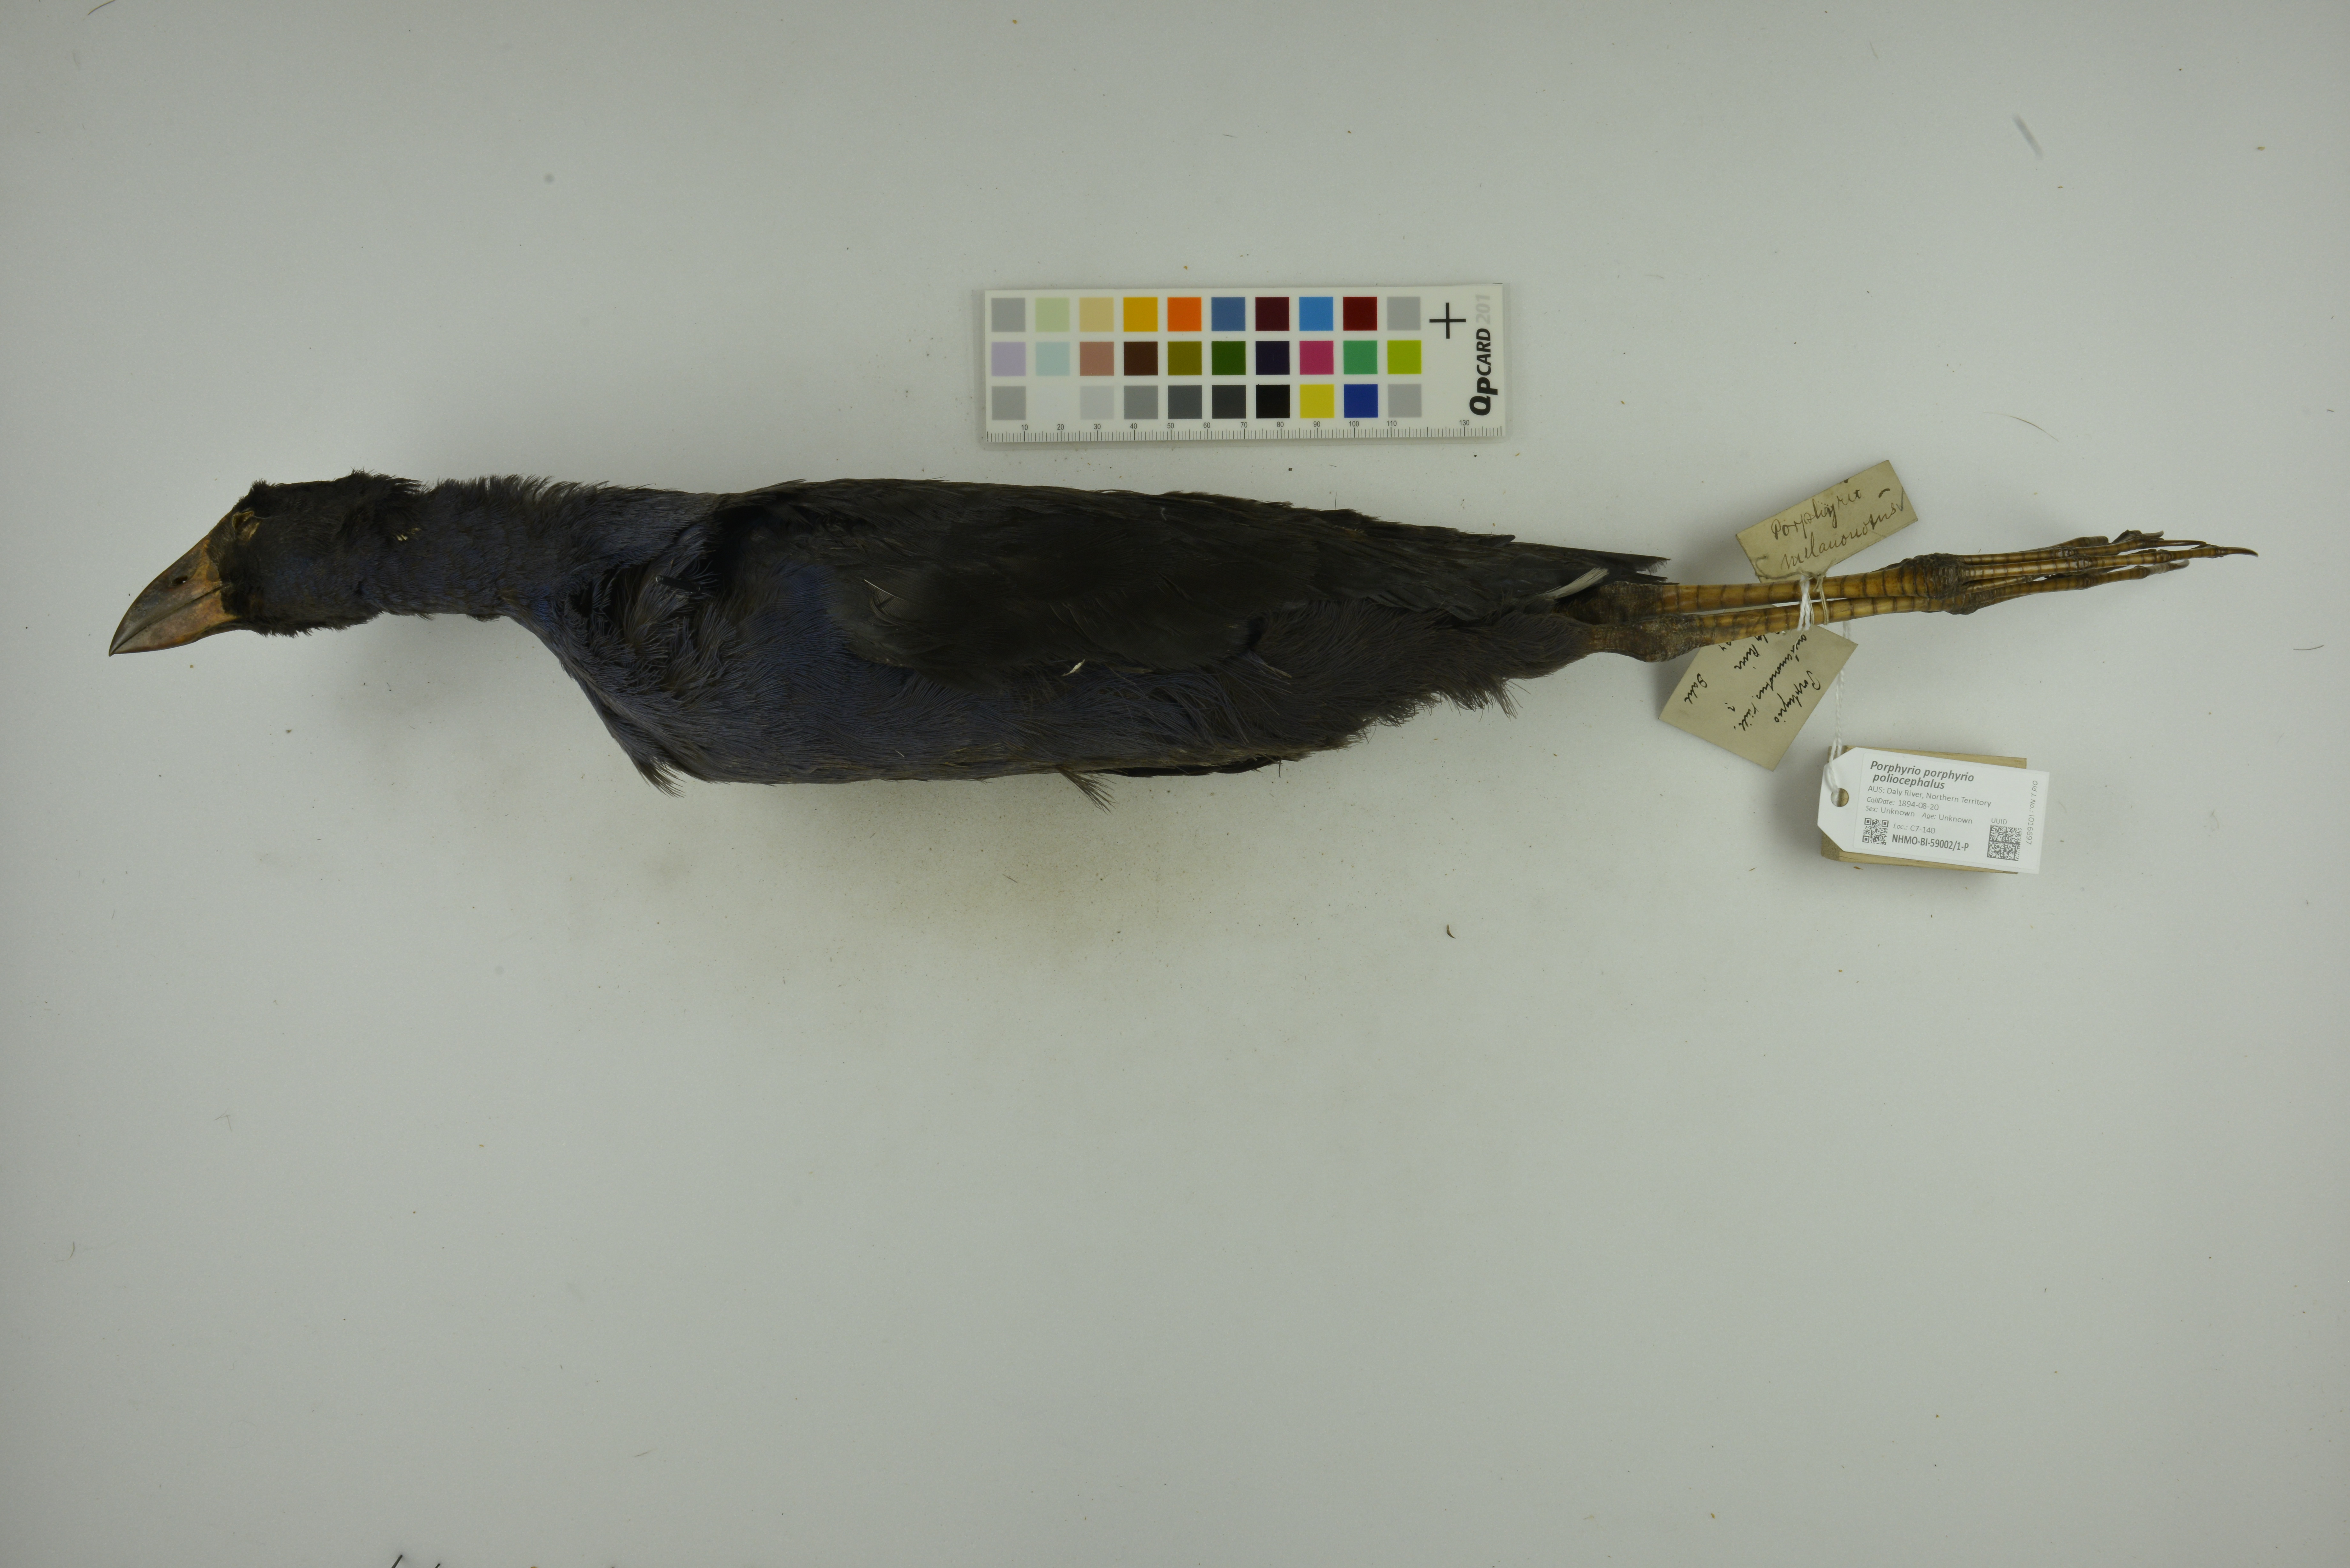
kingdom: Animalia
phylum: Chordata
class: Aves
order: Gruiformes
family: Rallidae
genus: Porphyrio
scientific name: Porphyrio porphyrio
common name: Purple swamphen
